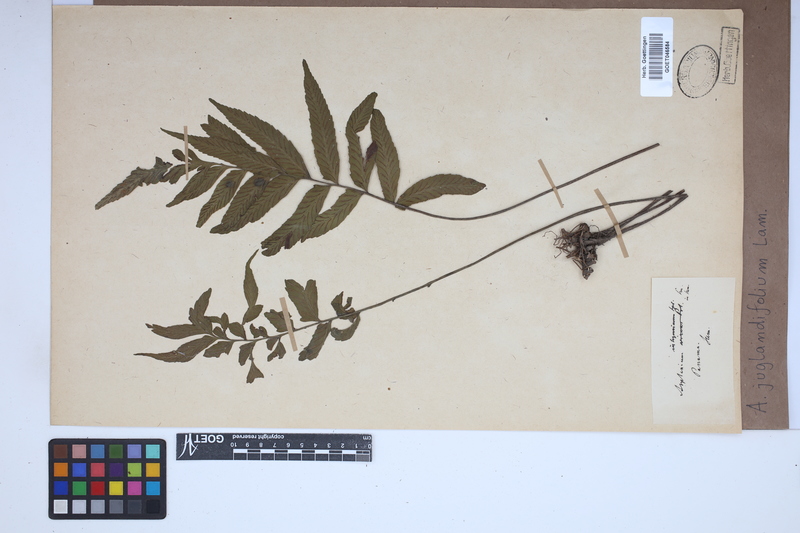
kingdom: Plantae
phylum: Tracheophyta
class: Polypodiopsida
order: Polypodiales
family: Aspleniaceae
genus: Asplenium
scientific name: Asplenium juglandifolium
